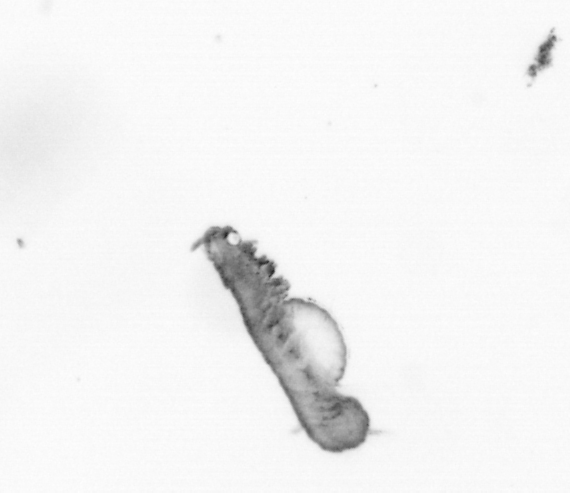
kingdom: Animalia
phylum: Annelida
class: Polychaeta
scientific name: Polychaeta
